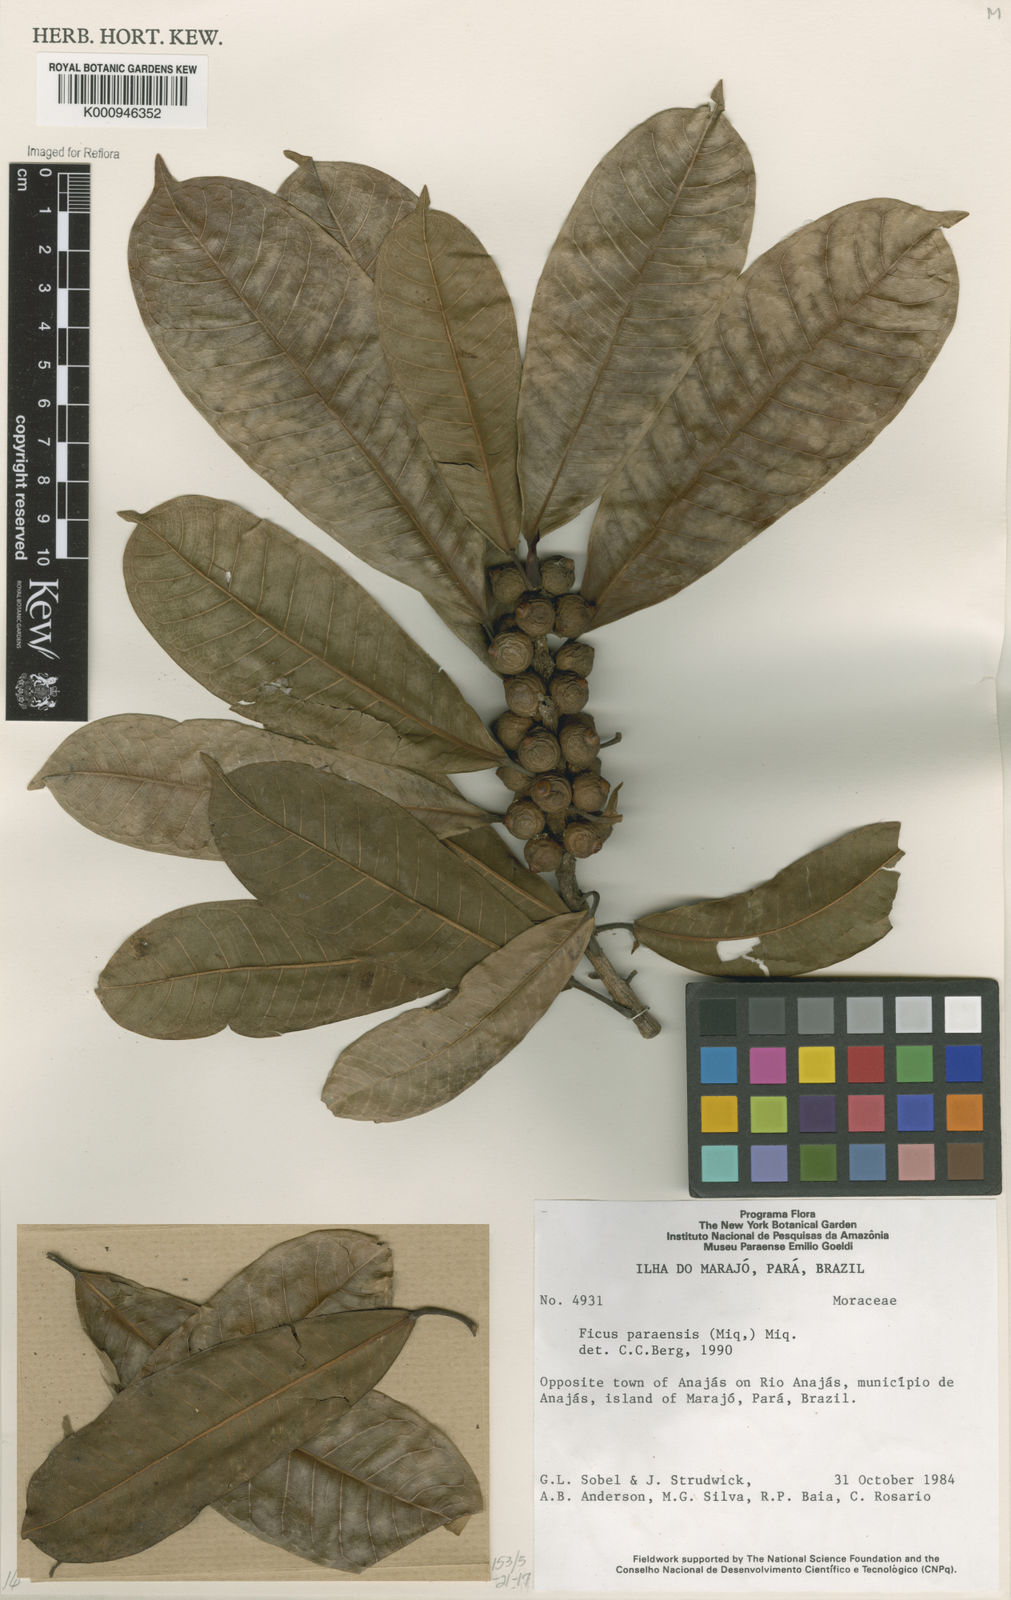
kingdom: Plantae
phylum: Tracheophyta
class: Magnoliopsida
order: Rosales
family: Moraceae
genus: Ficus
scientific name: Ficus paraensis
